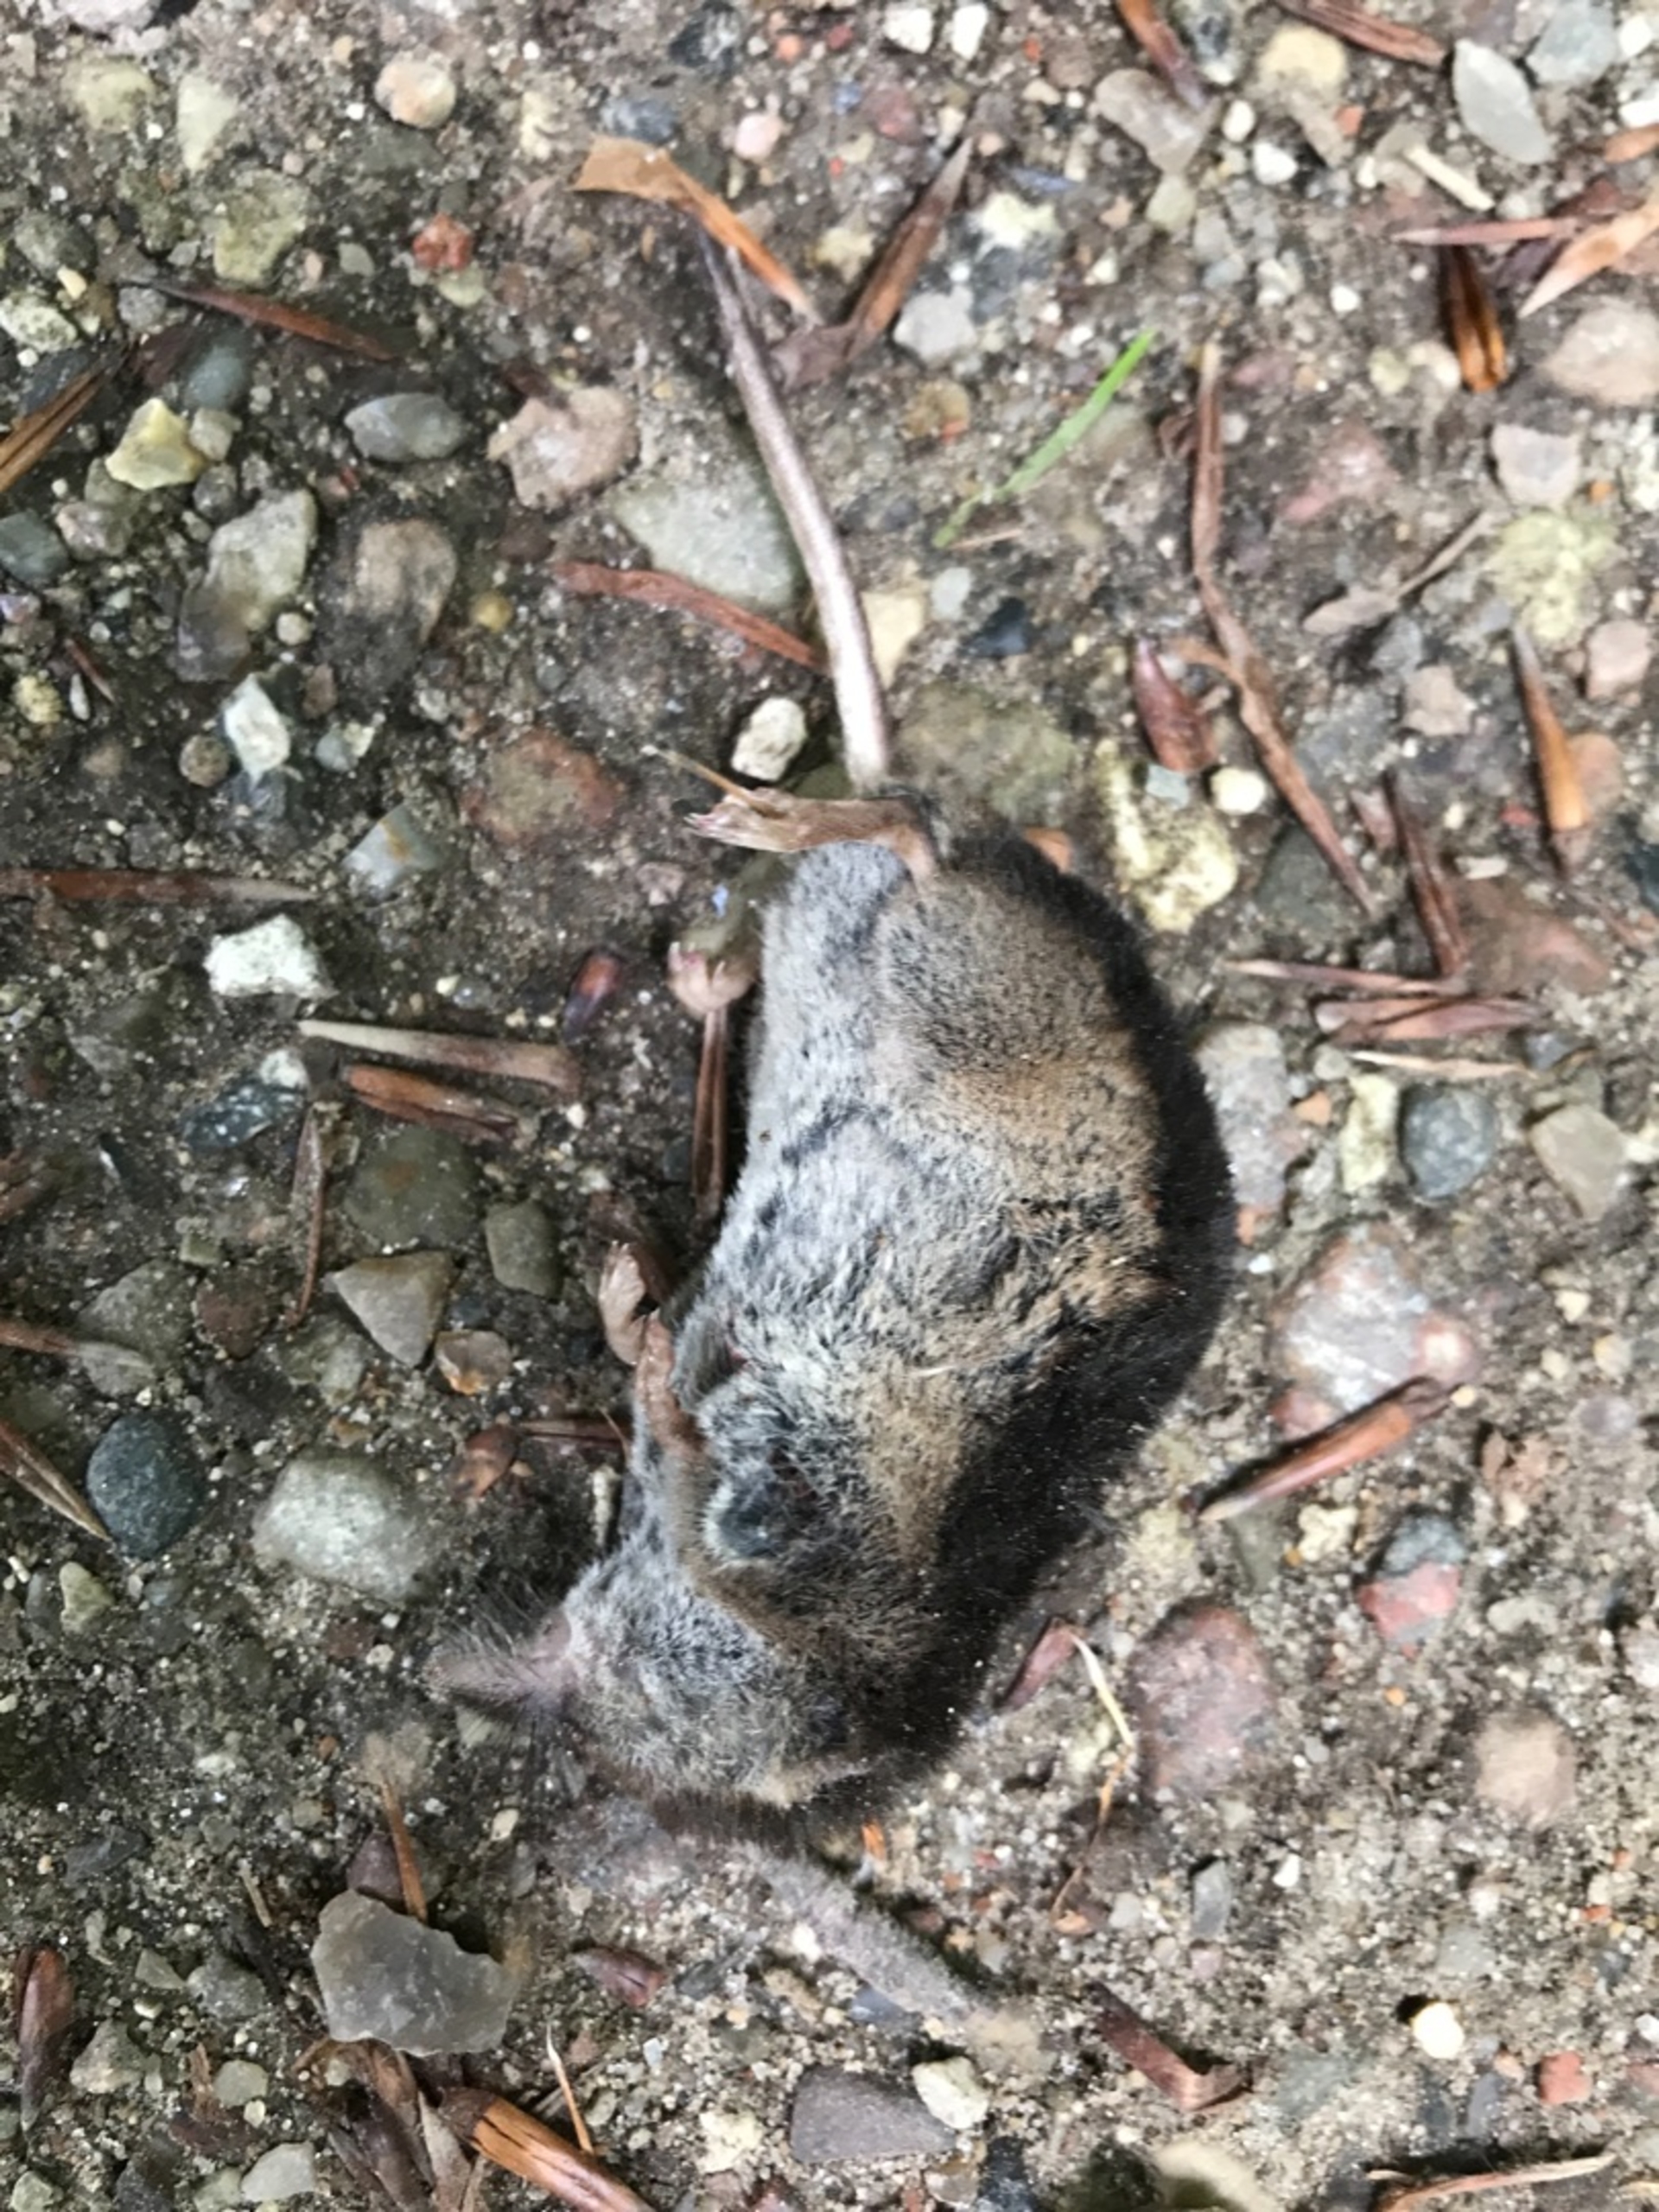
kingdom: Animalia
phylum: Chordata
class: Mammalia
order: Soricomorpha
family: Soricidae
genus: Sorex
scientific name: Sorex araneus
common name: Almindelig spidsmus
